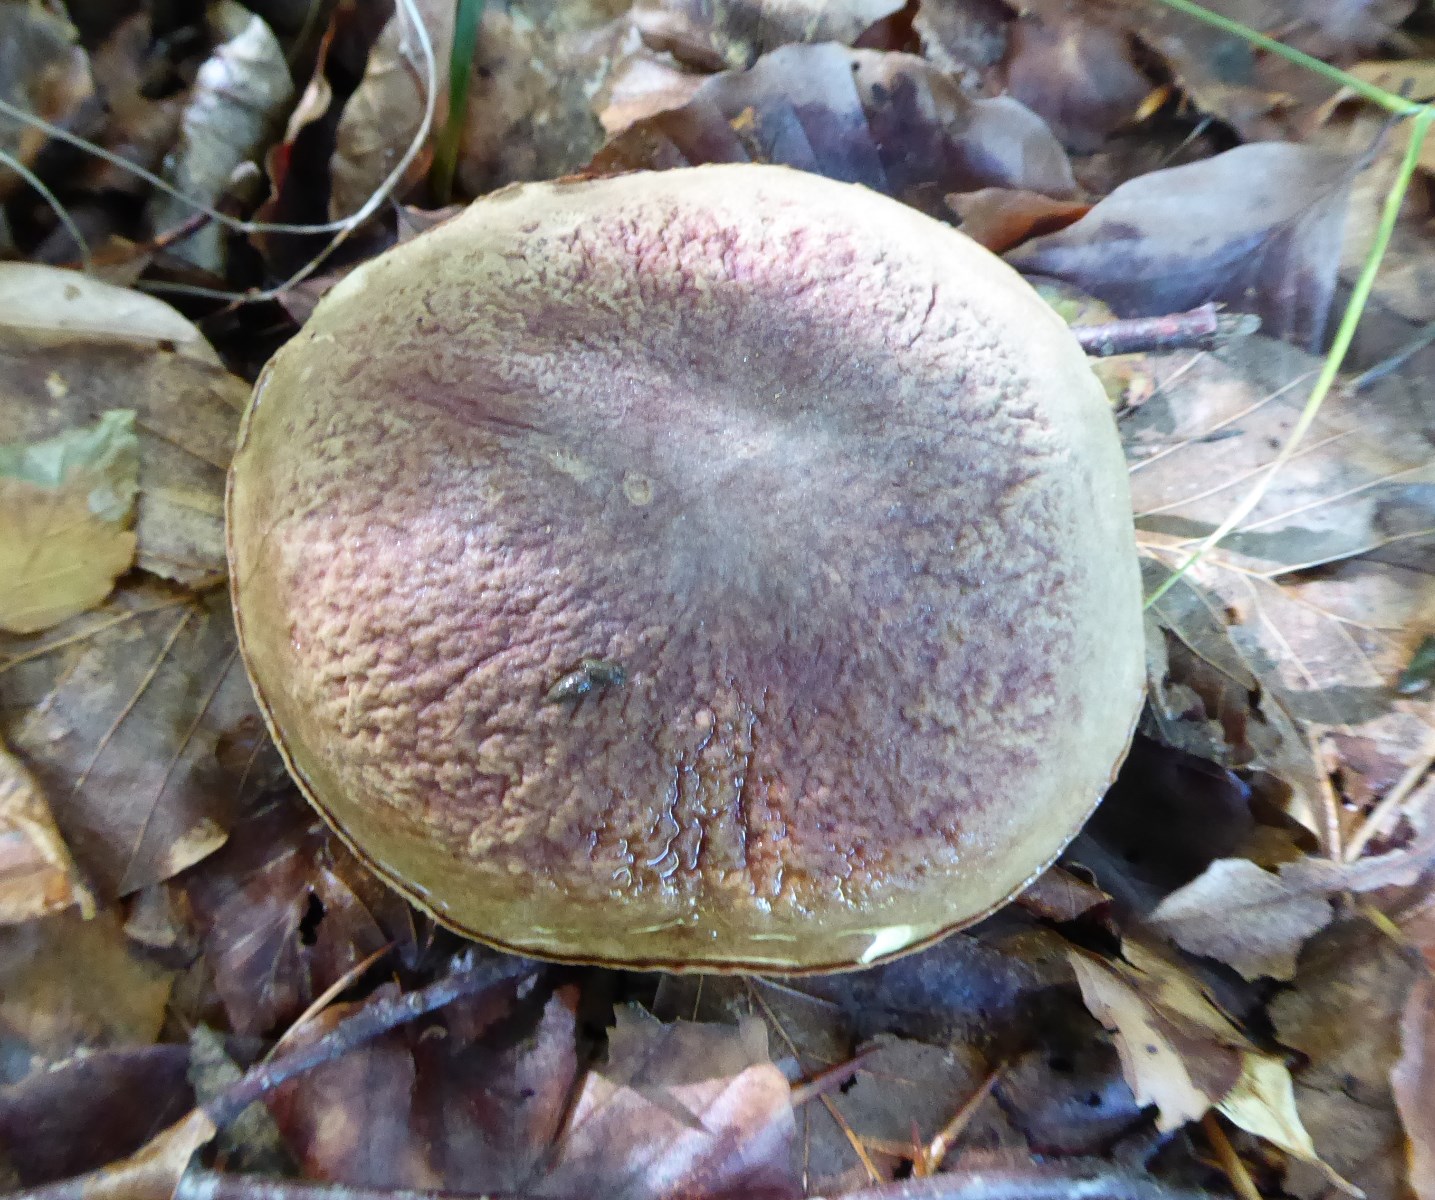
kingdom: Fungi
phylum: Basidiomycota
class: Agaricomycetes
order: Boletales
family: Boletaceae
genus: Xerocomellus
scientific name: Xerocomellus pruinatus
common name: dugget rørhat
